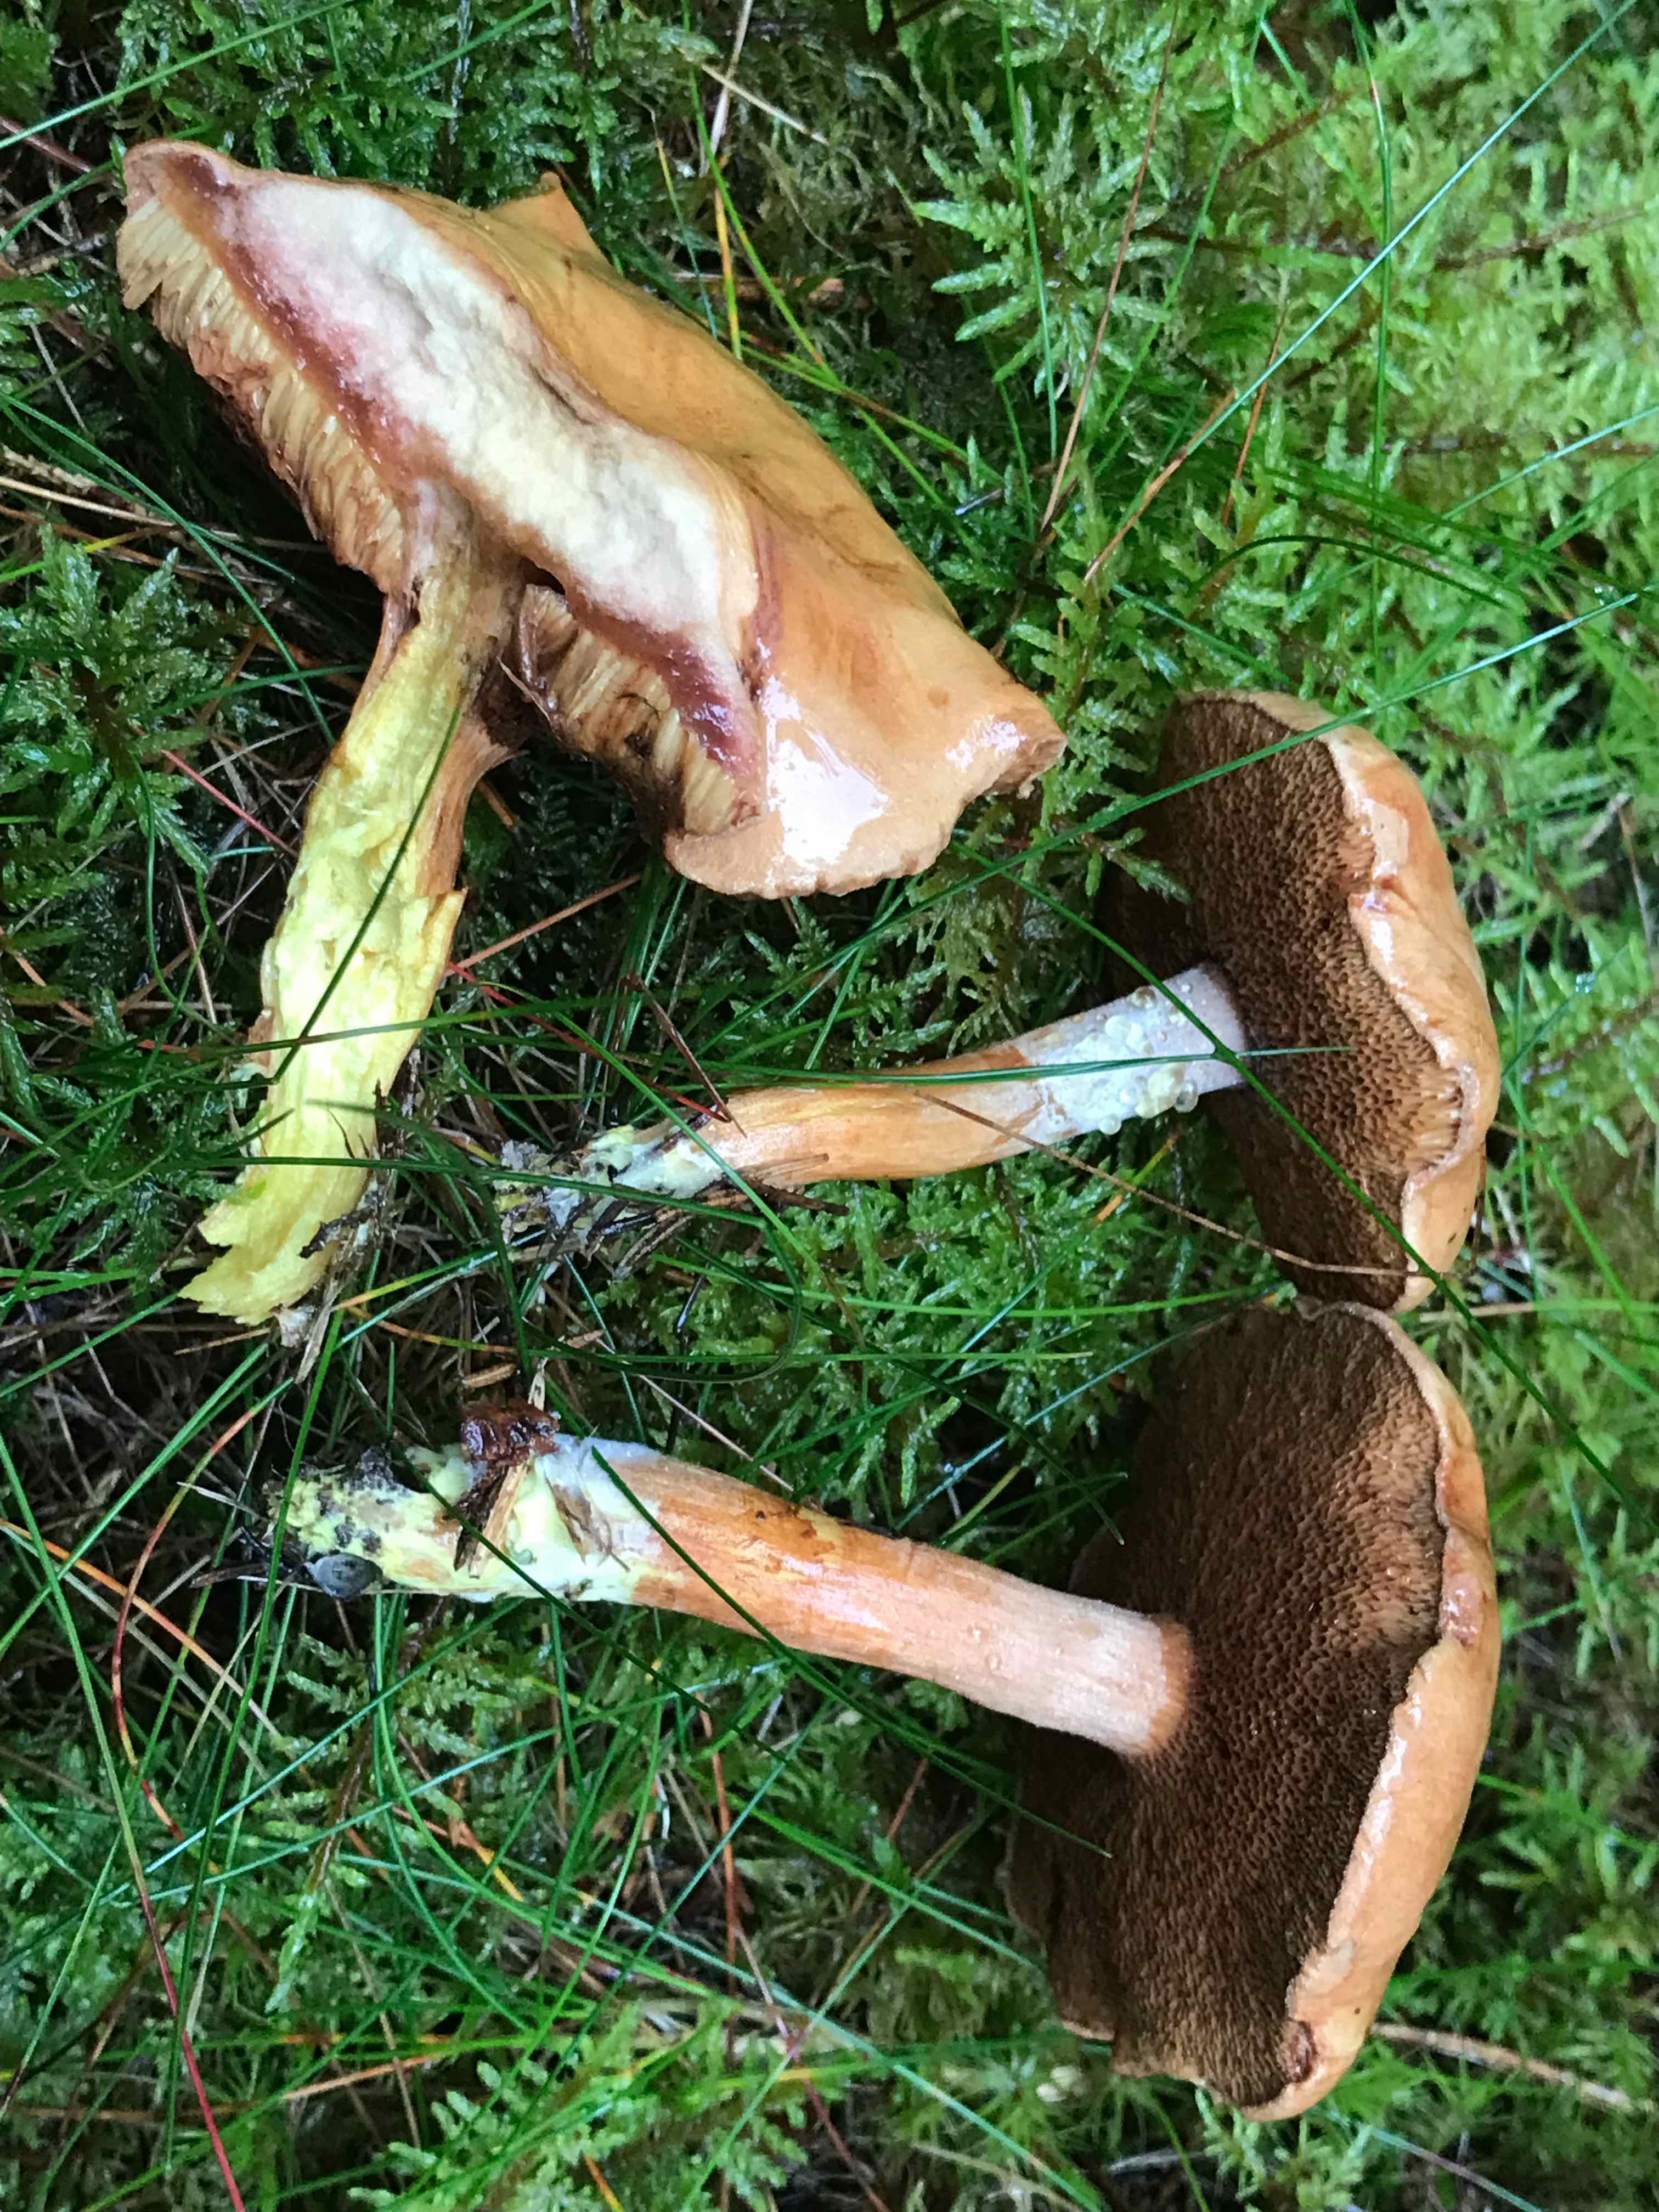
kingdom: Fungi
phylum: Basidiomycota
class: Agaricomycetes
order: Boletales
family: Boletaceae
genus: Chalciporus
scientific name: Chalciporus piperatus
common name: peberrørhat
